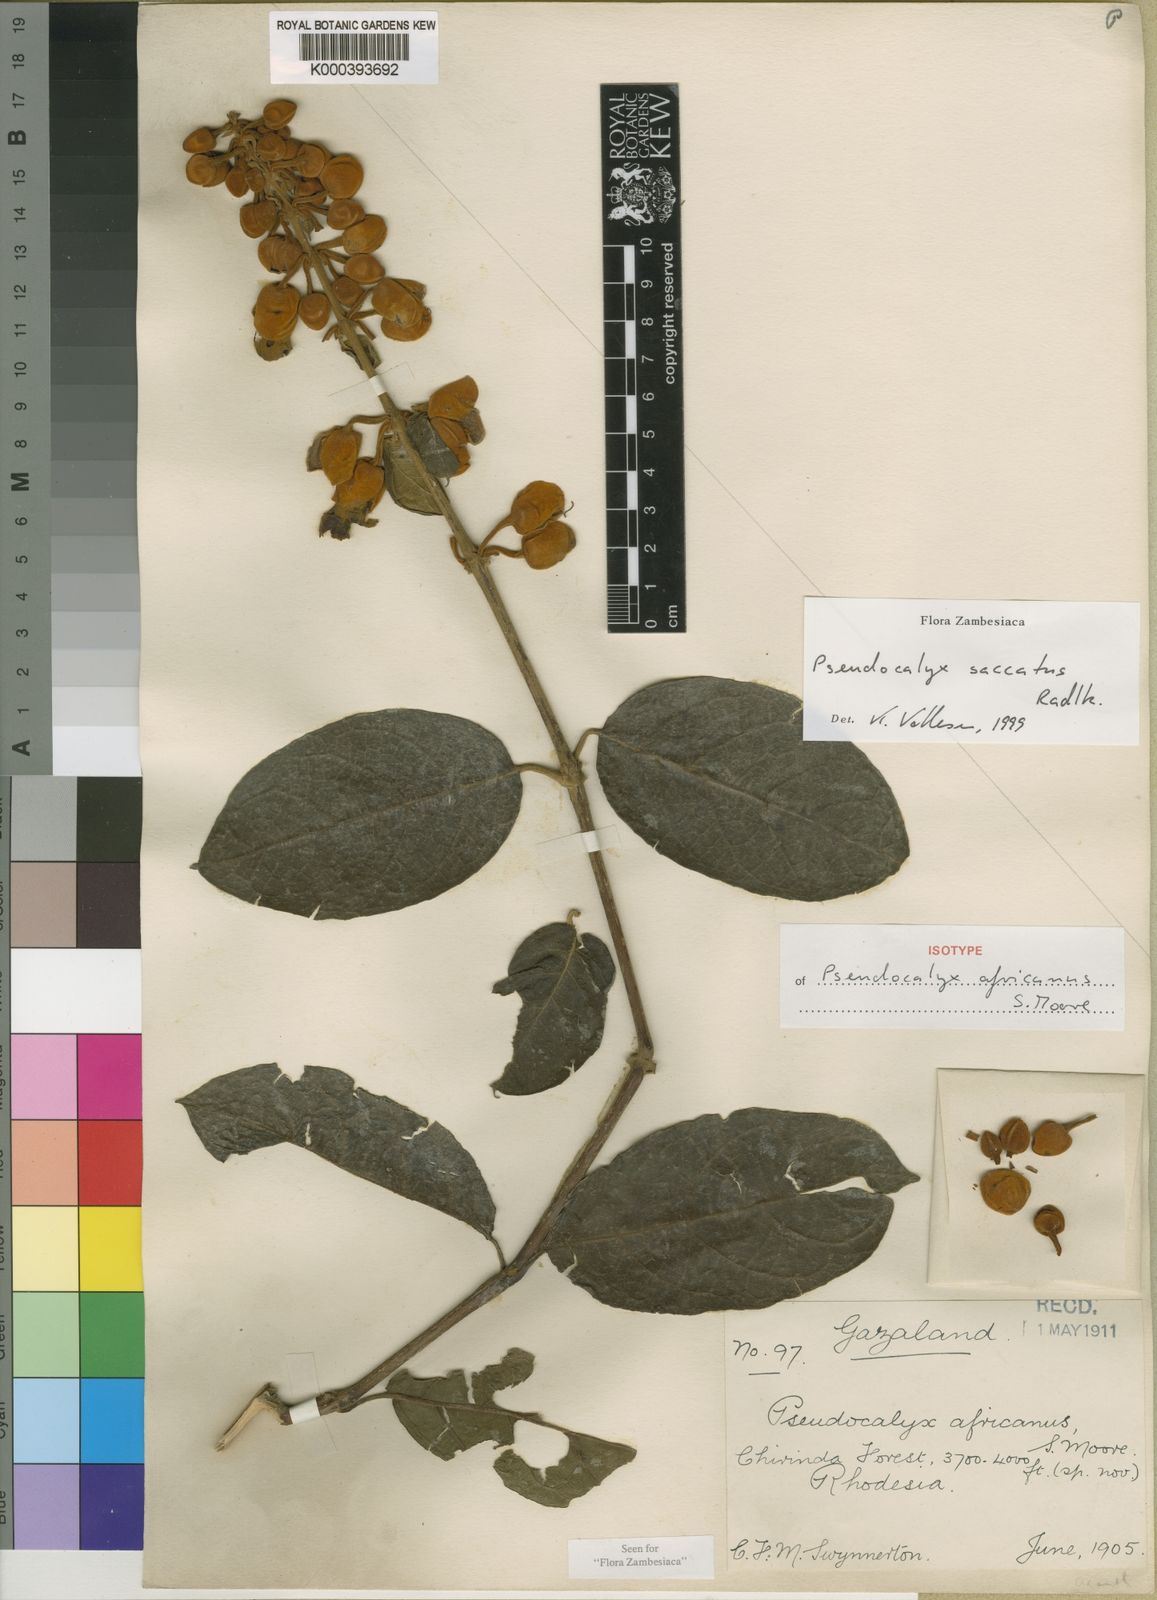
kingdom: Plantae
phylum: Tracheophyta
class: Magnoliopsida
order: Lamiales
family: Acanthaceae
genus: Pseudocalyx
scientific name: Pseudocalyx saccatus
